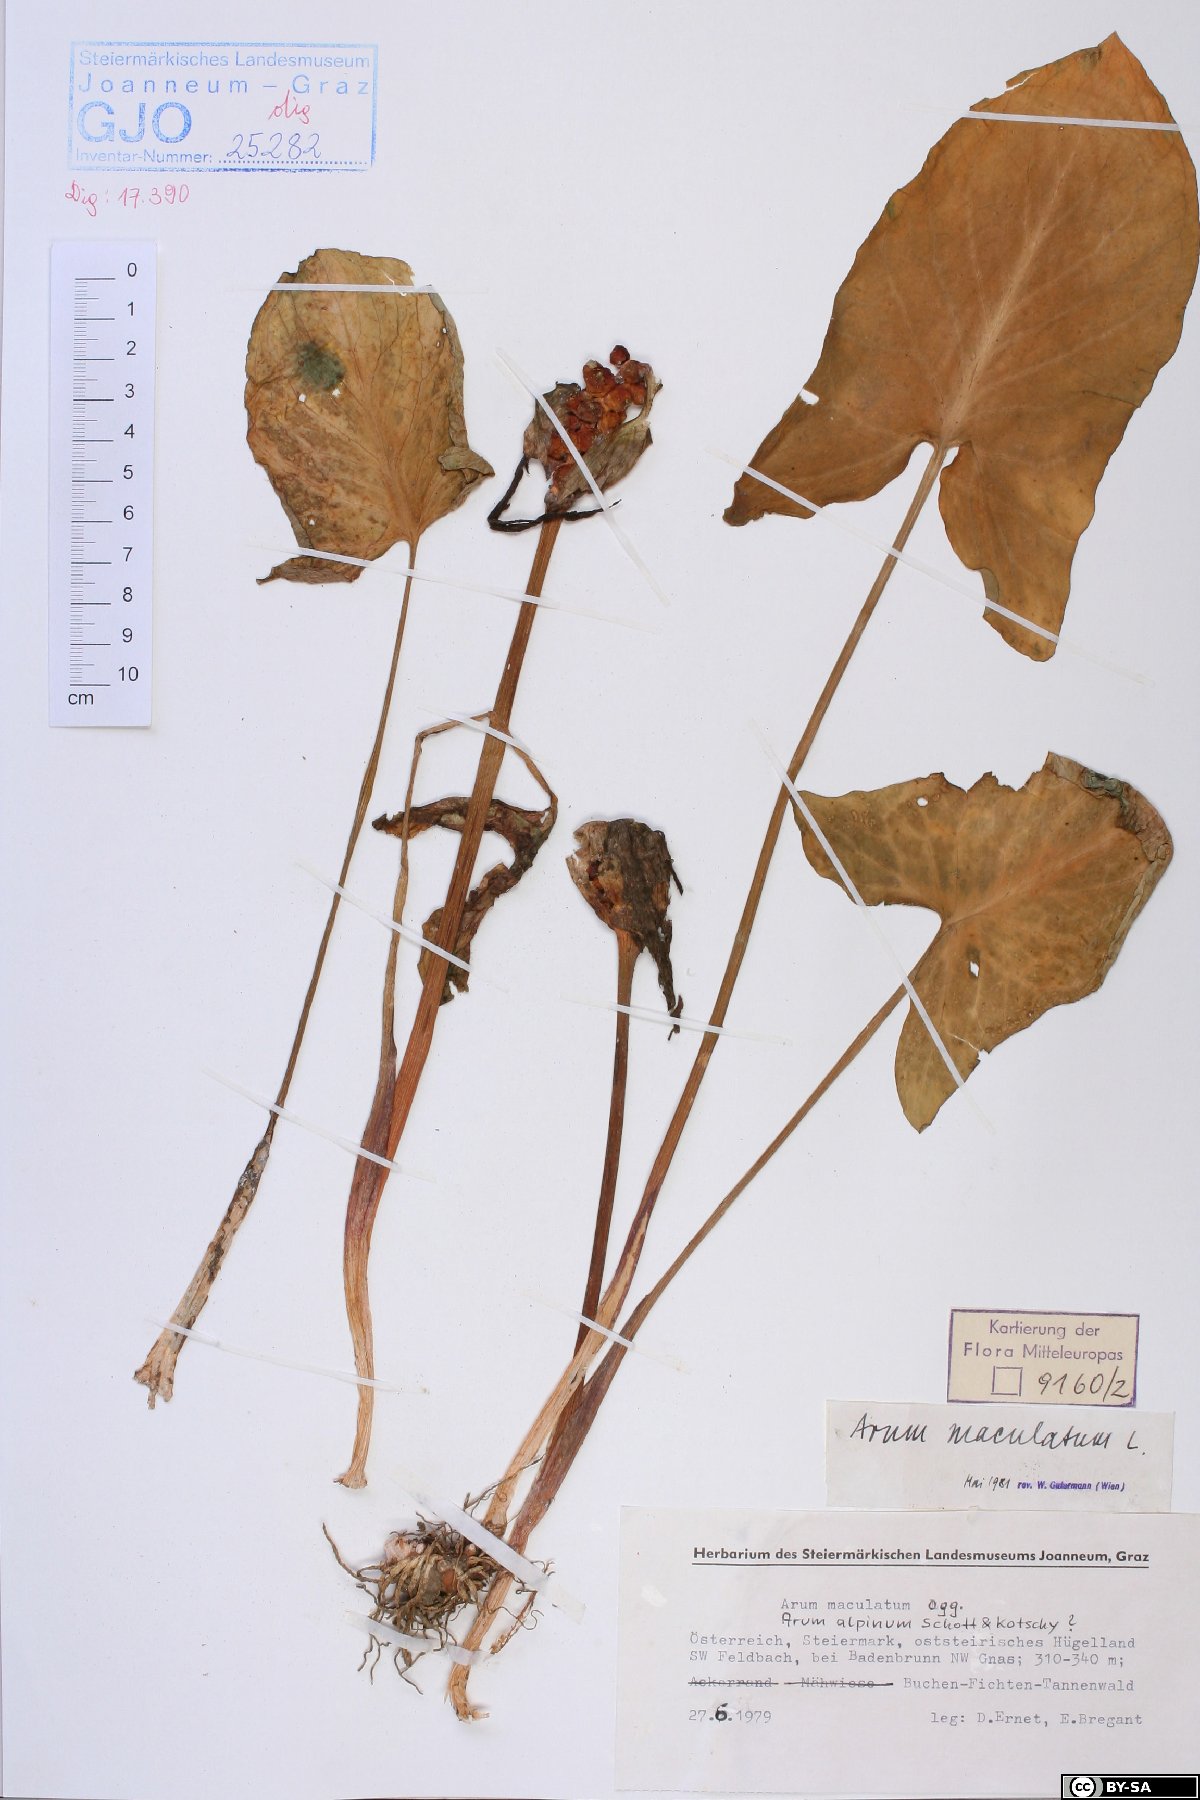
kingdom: Plantae
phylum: Tracheophyta
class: Liliopsida
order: Alismatales
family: Araceae
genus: Arum
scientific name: Arum maculatum
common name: Lords-and-ladies
